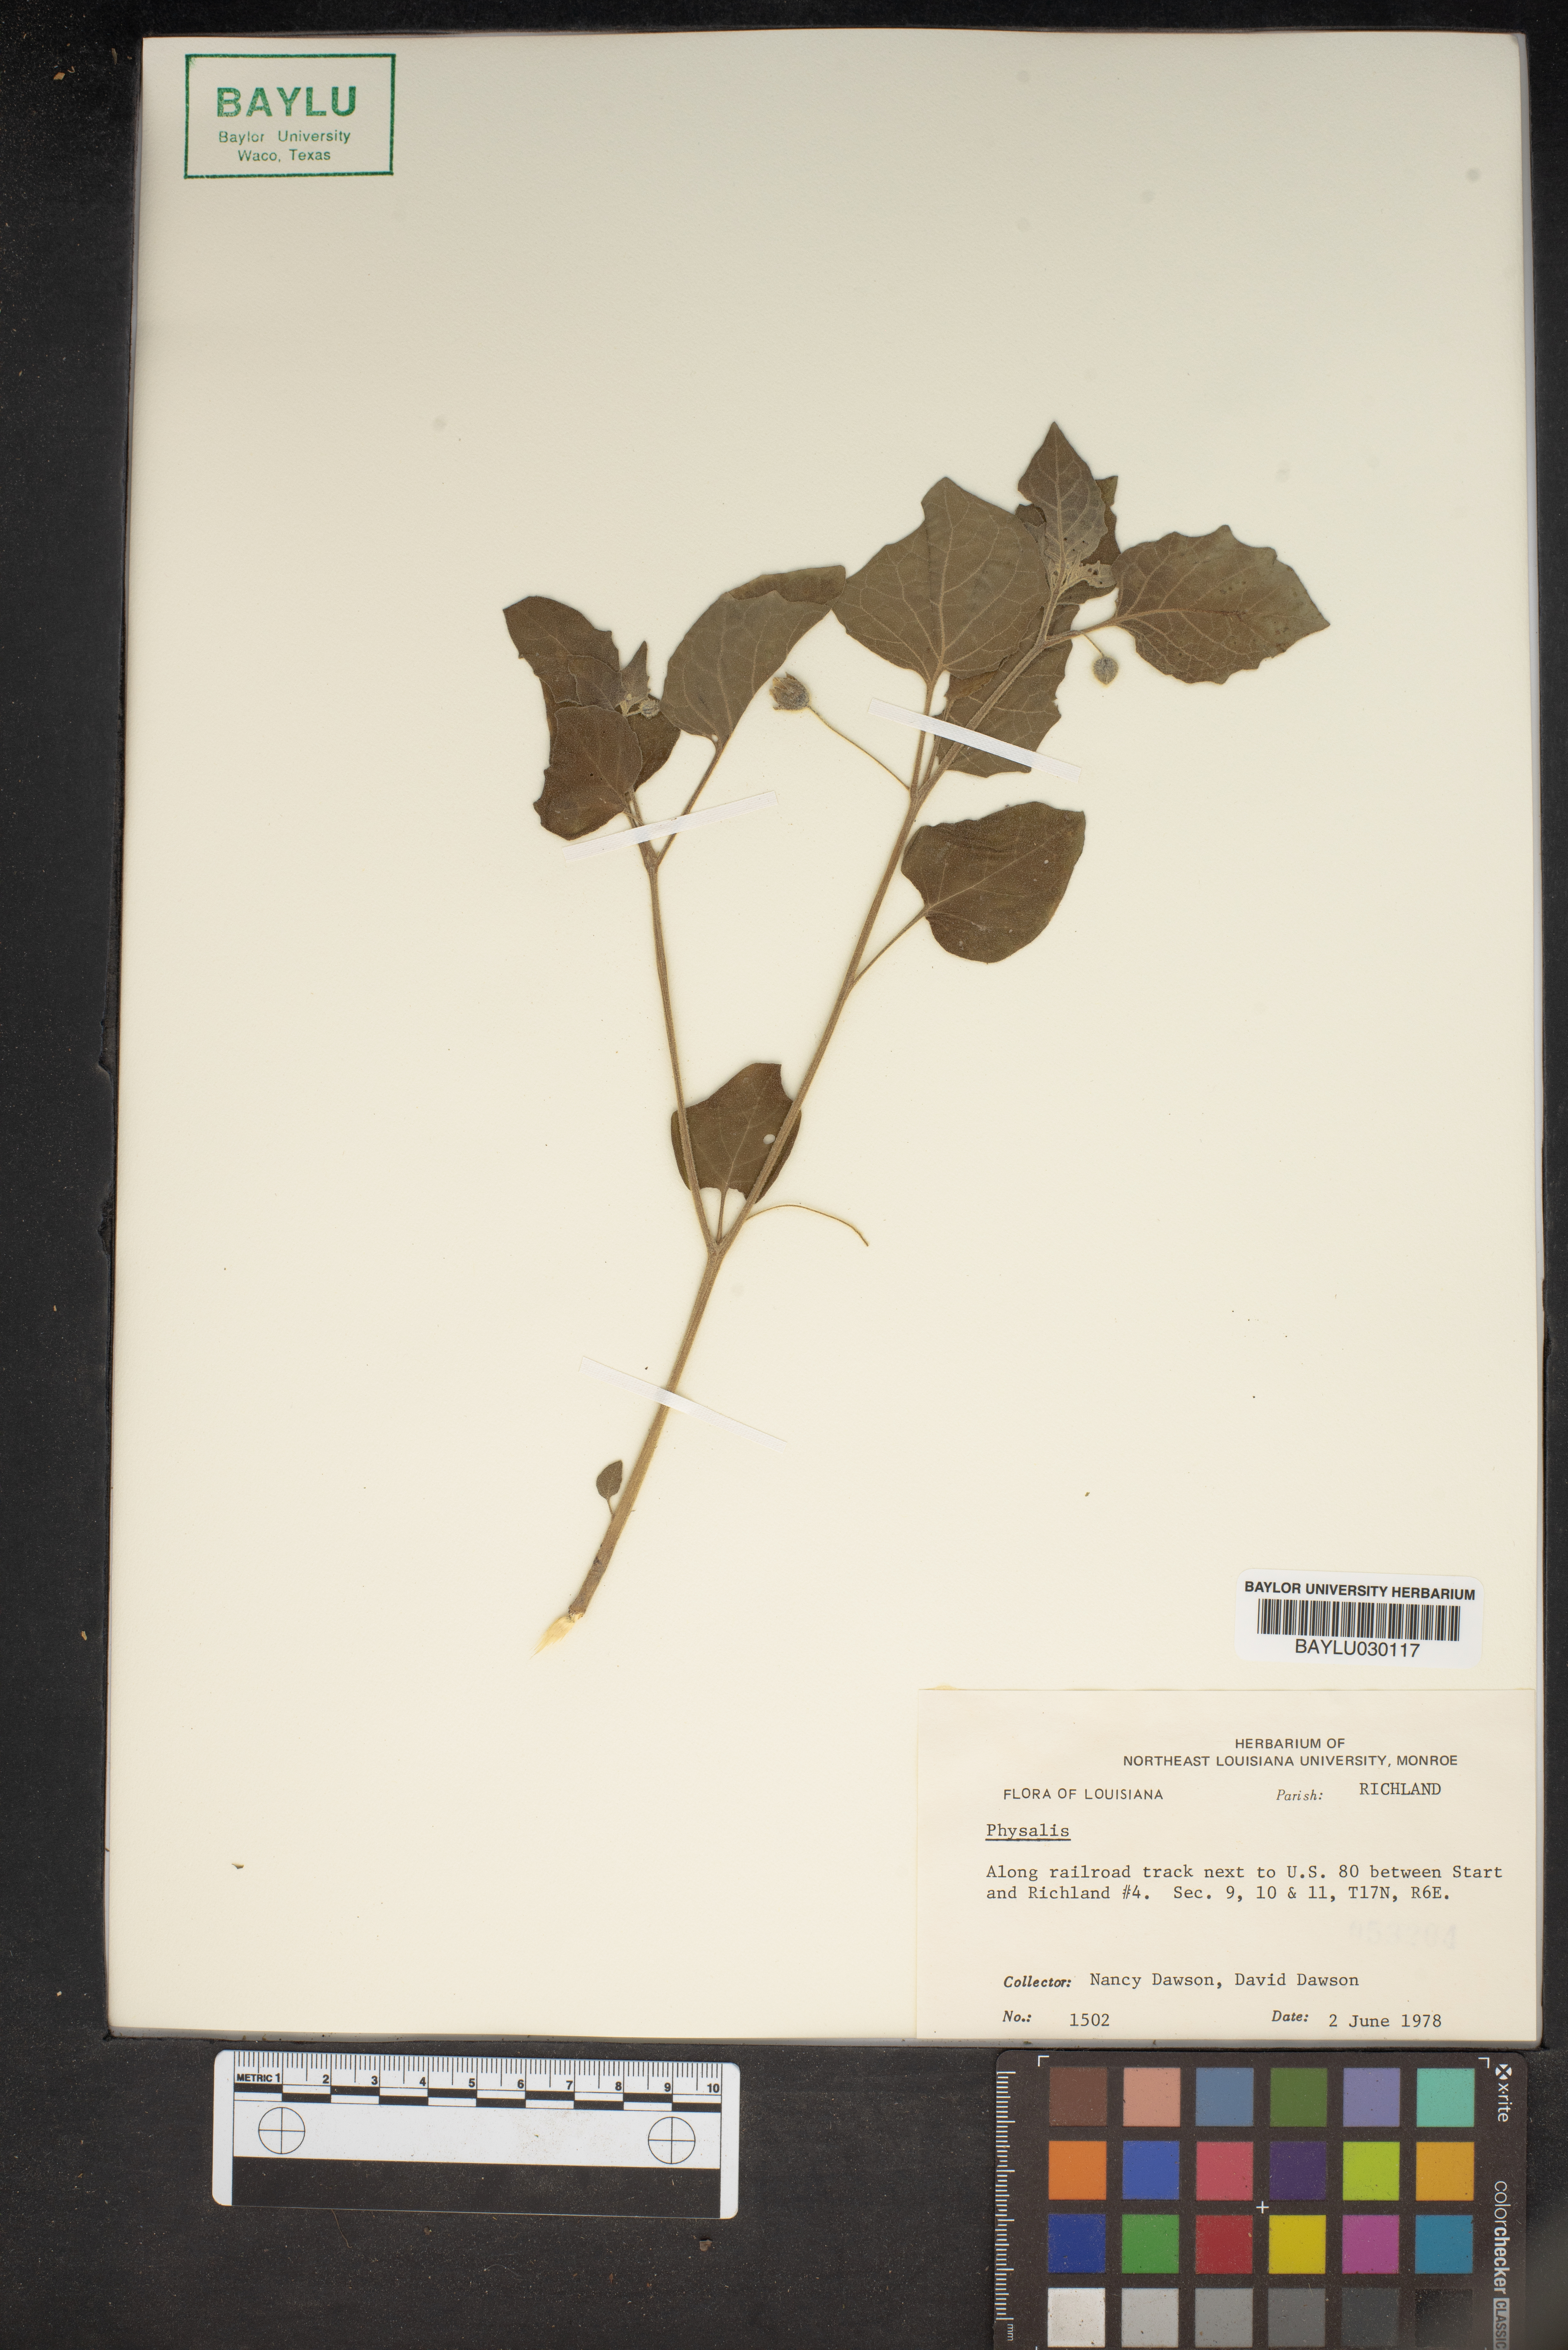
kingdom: Plantae
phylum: Tracheophyta
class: Magnoliopsida
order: Solanales
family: Solanaceae
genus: Physalis
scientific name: Physalis
